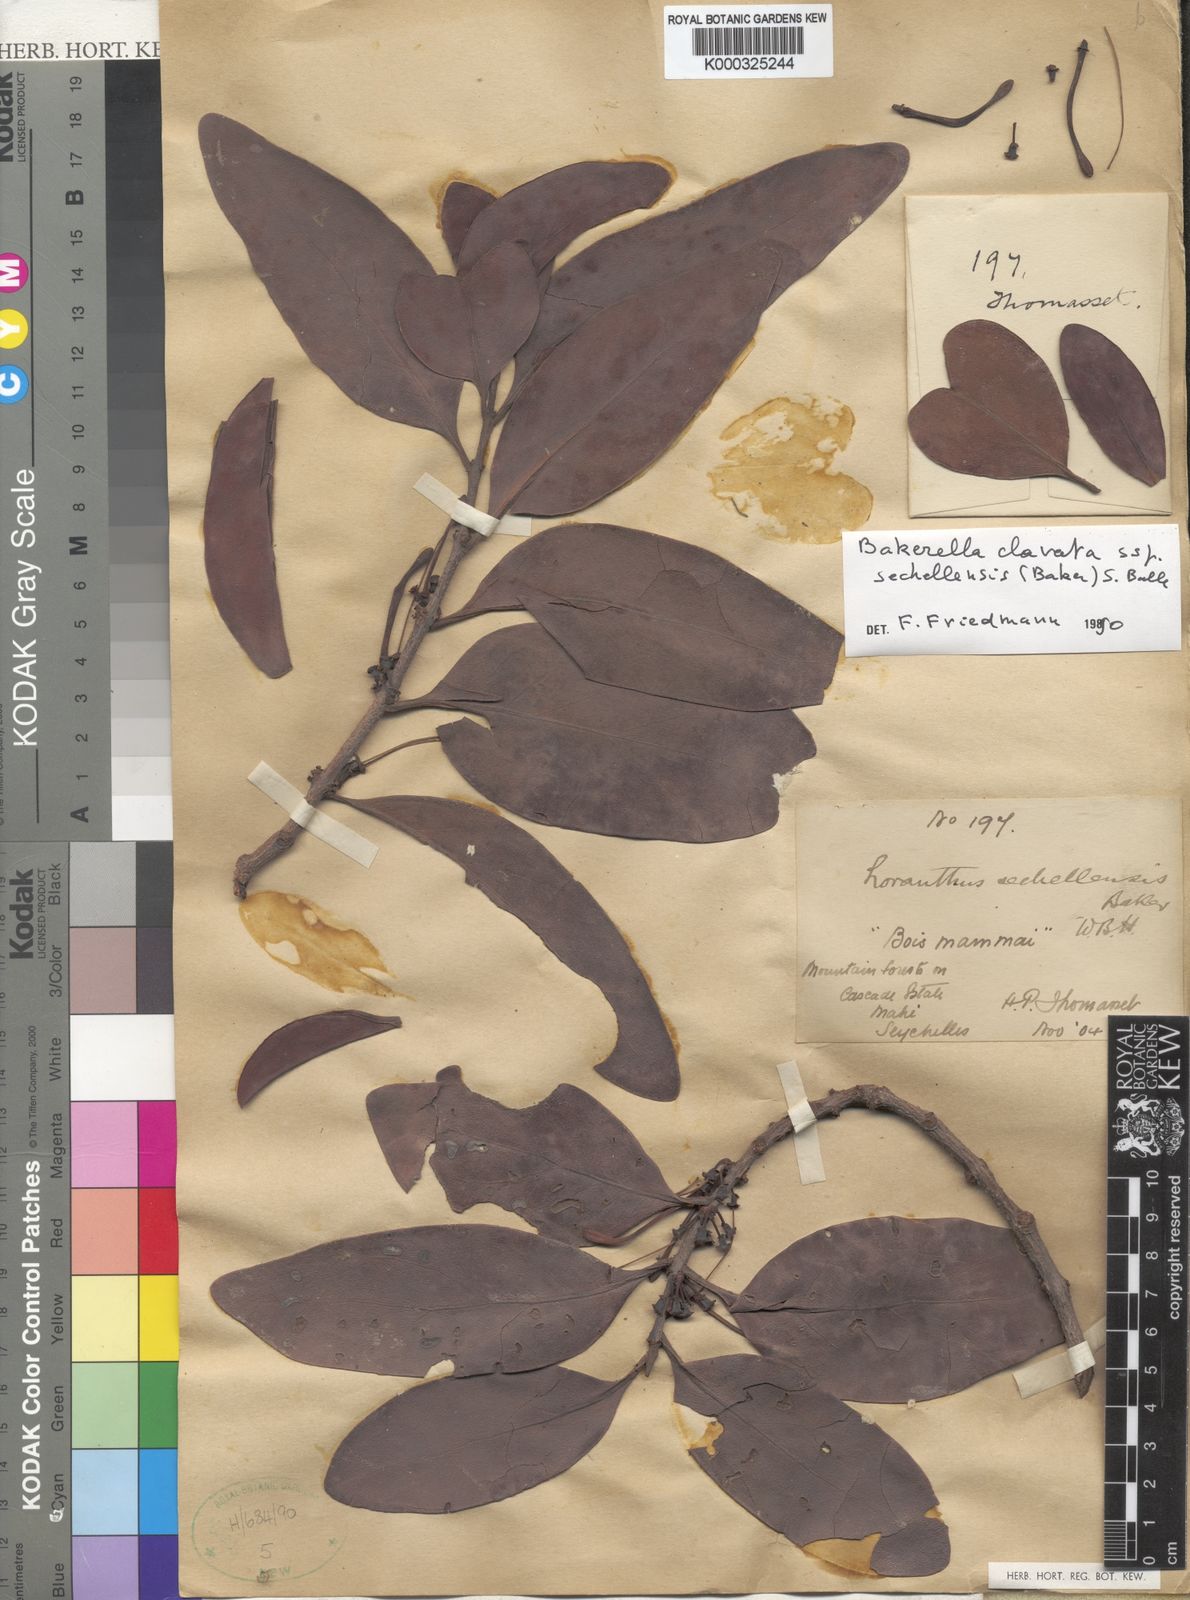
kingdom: Plantae
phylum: Tracheophyta
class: Magnoliopsida
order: Santalales
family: Loranthaceae
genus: Bakerella
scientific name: Bakerella clavata
